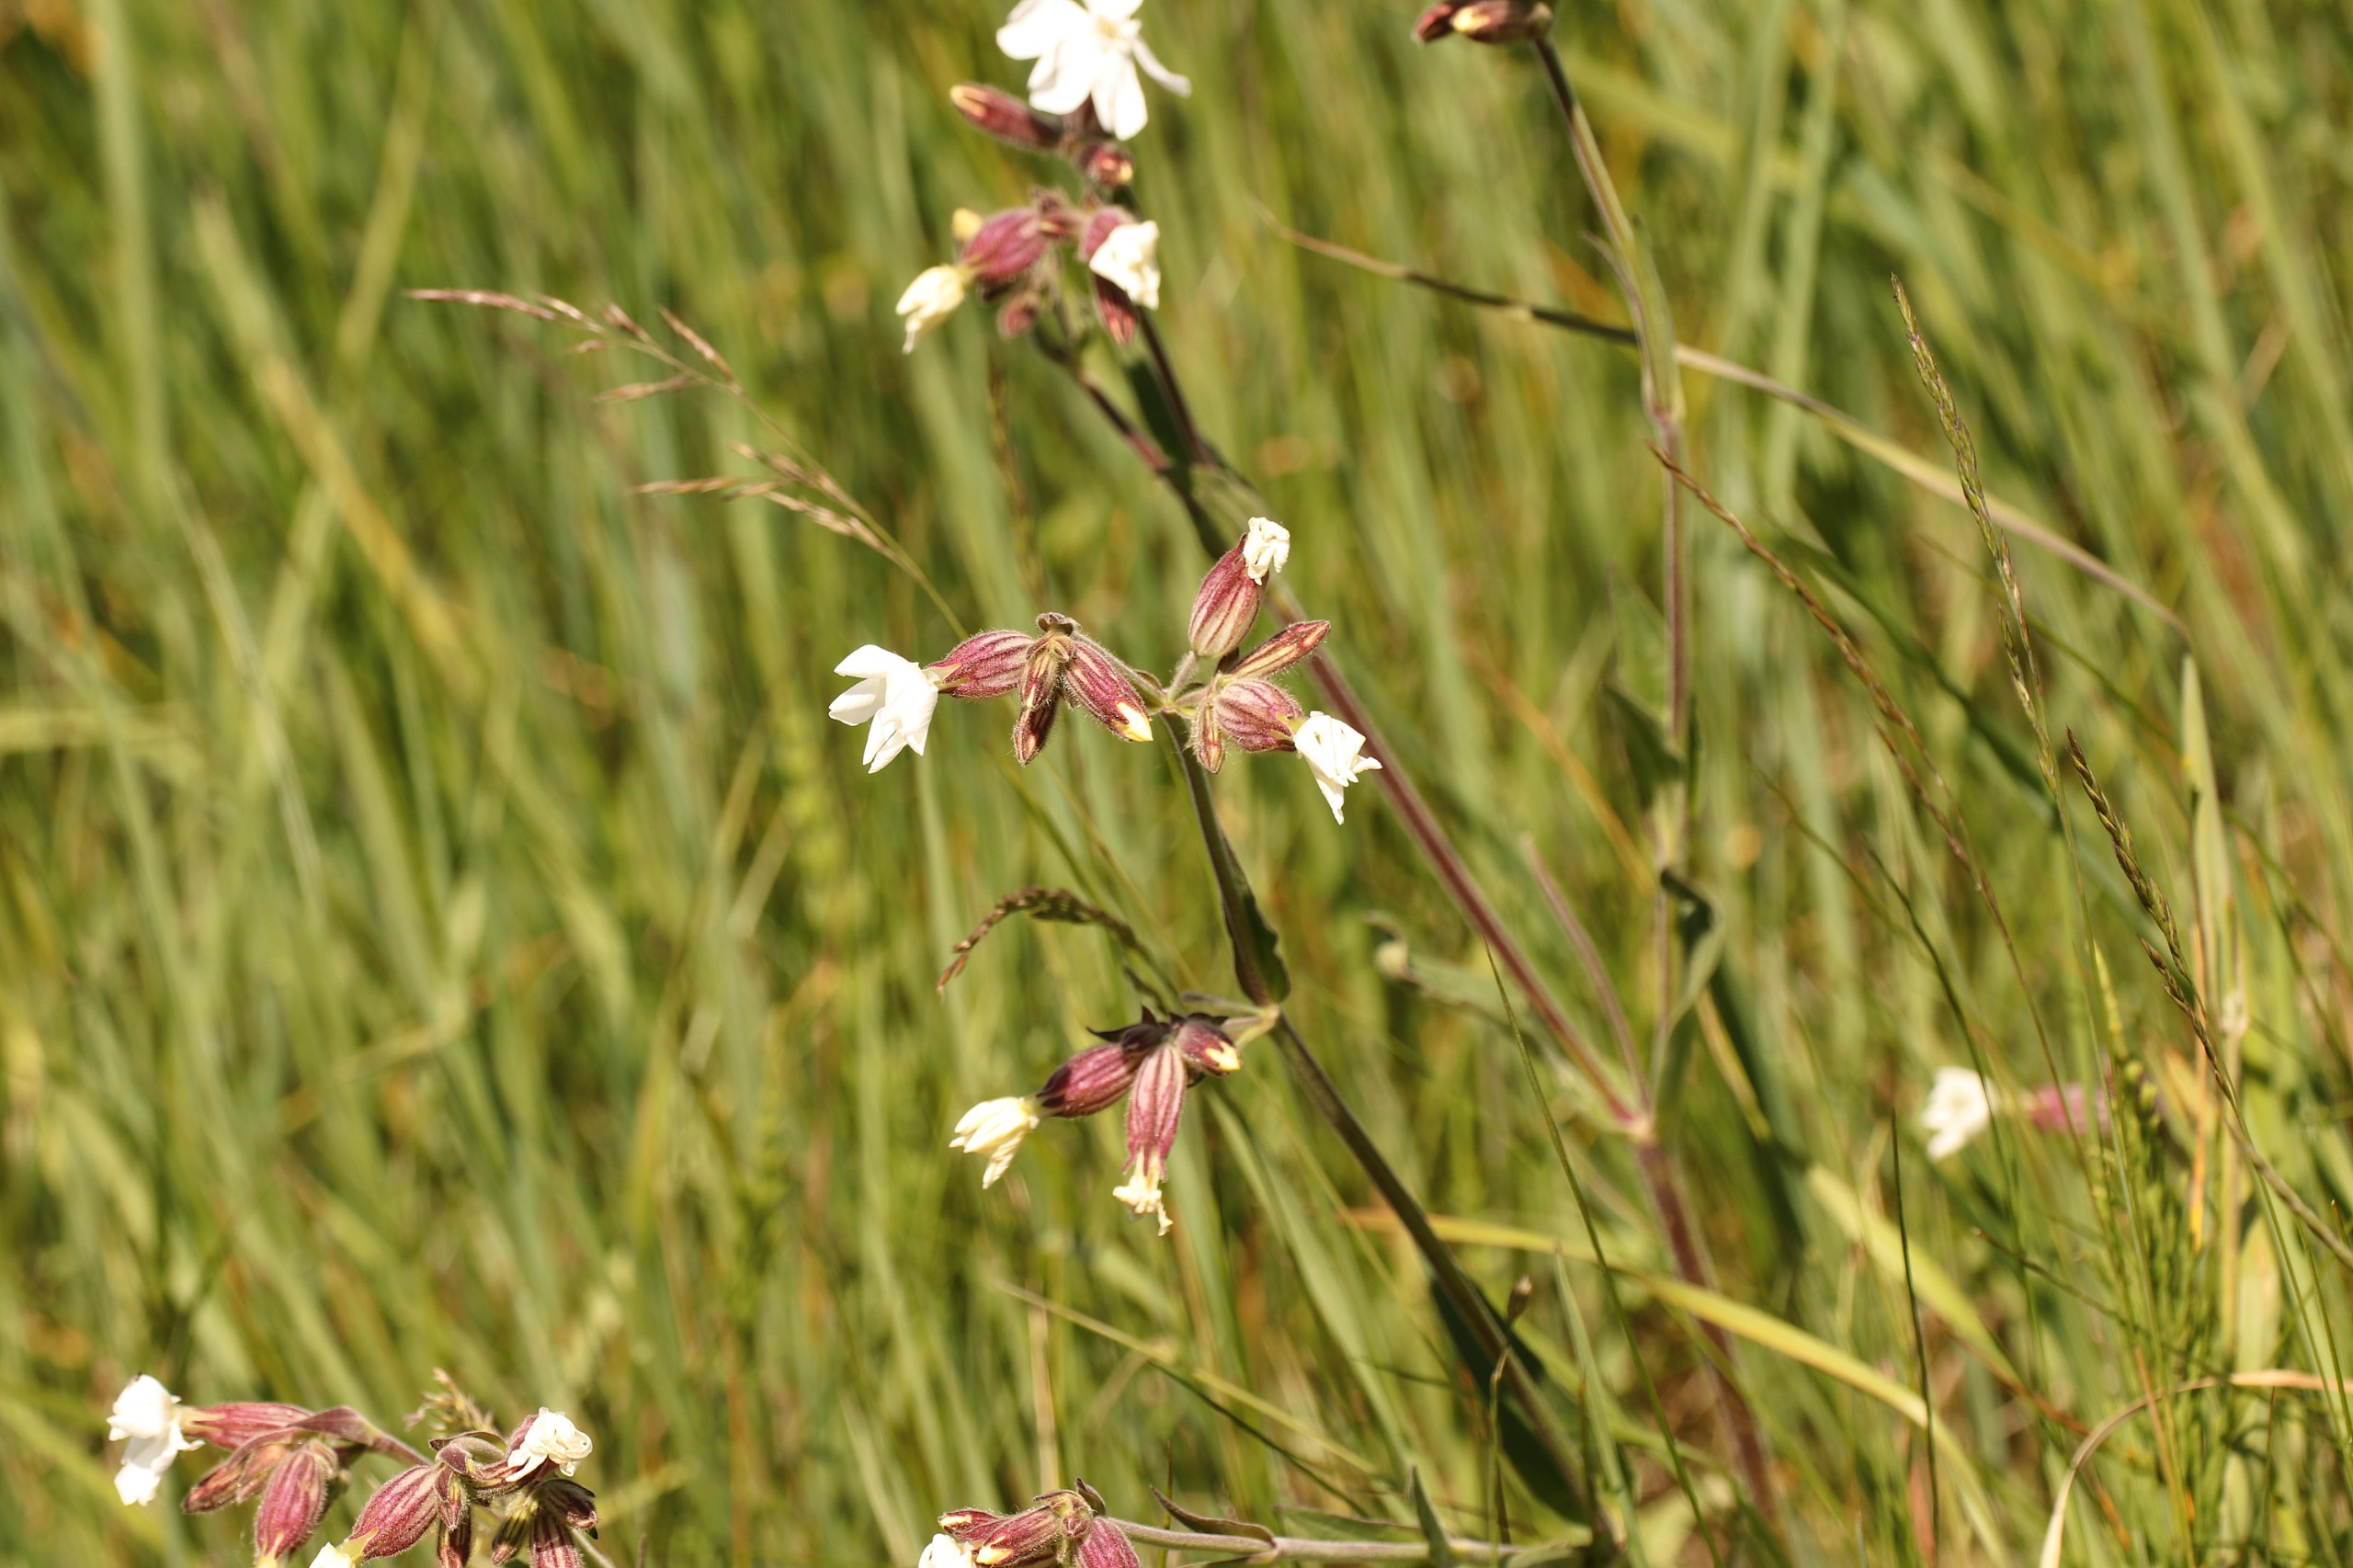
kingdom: Plantae
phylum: Tracheophyta
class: Magnoliopsida
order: Caryophyllales
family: Caryophyllaceae
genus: Silene
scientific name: Silene latifolia
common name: Aftenpragtstjerne
